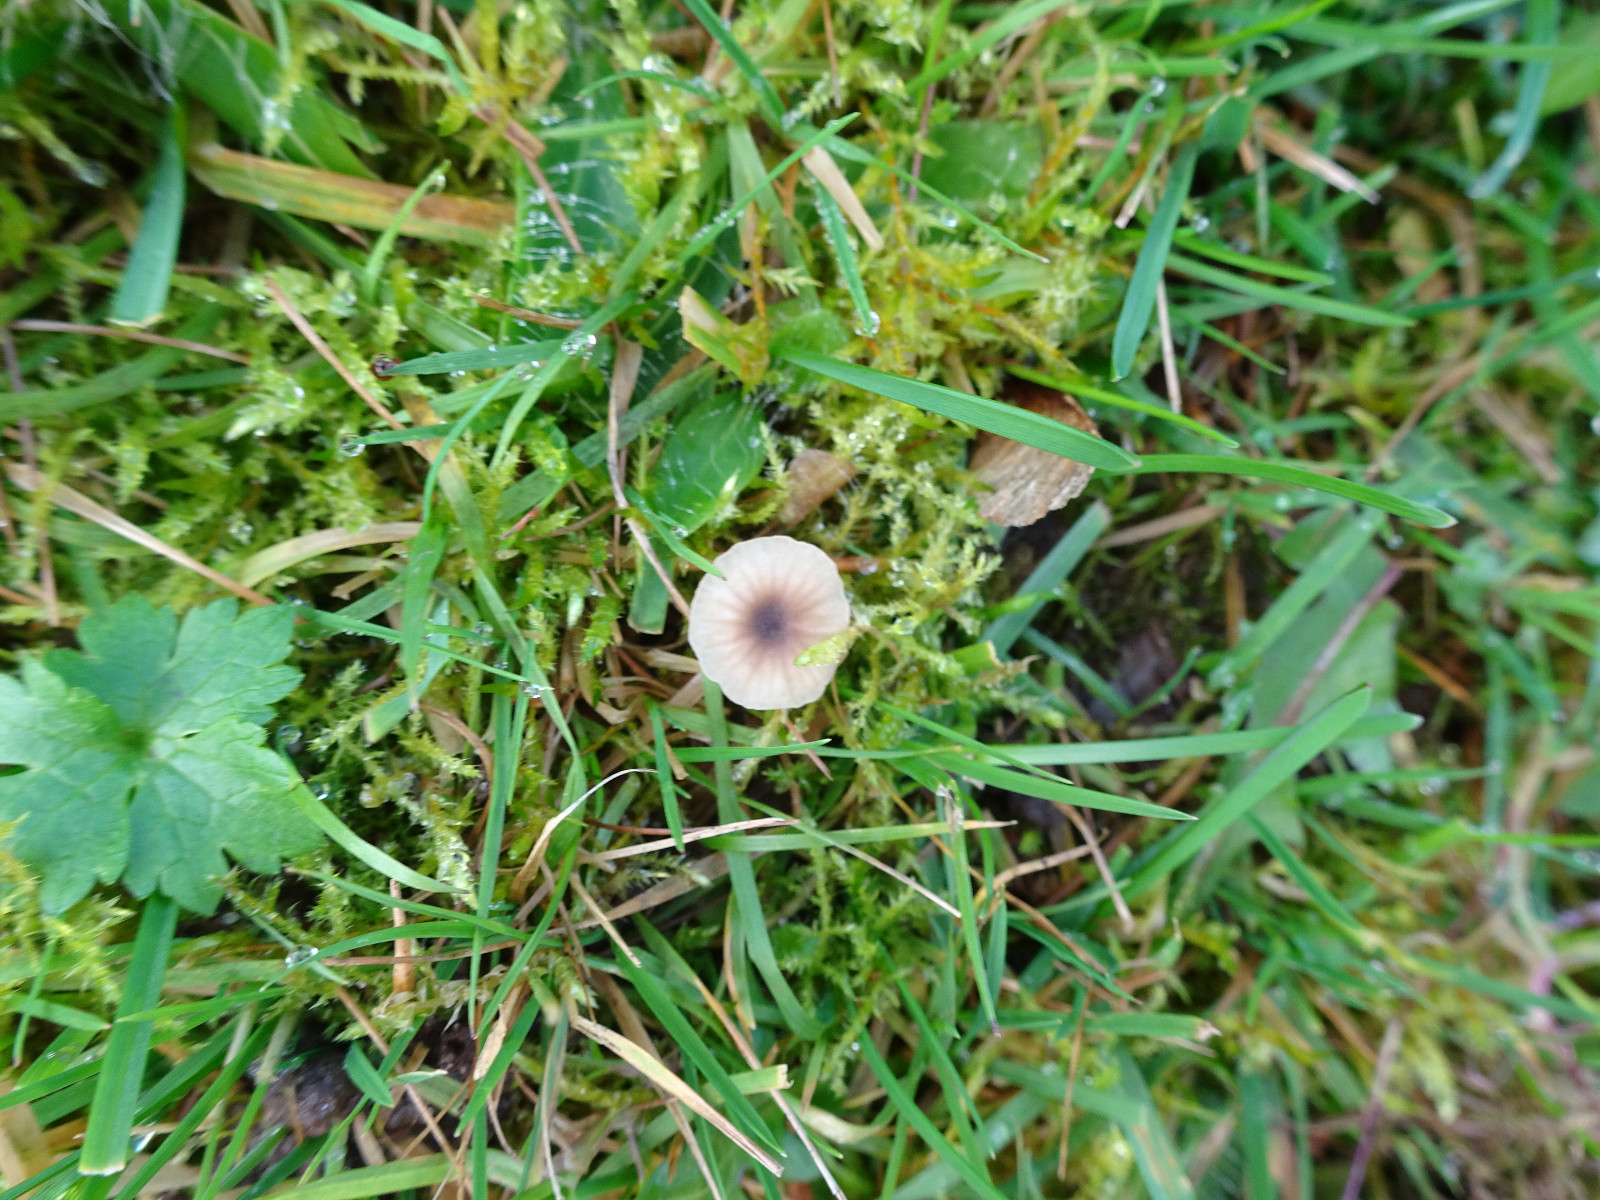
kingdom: Fungi
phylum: Basidiomycota
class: Agaricomycetes
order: Hymenochaetales
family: Rickenellaceae
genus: Rickenella
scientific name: Rickenella swartzii
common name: finstokket mosnavlehat
